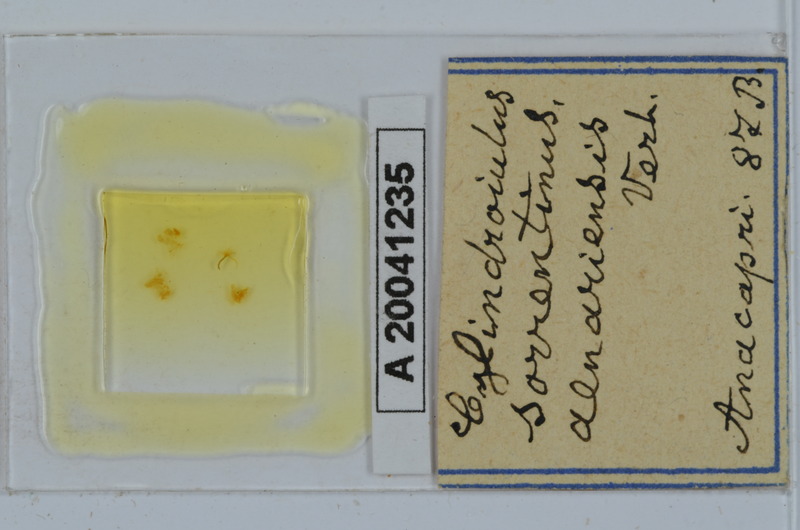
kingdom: Animalia
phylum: Arthropoda
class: Diplopoda
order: Julida
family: Julidae
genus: Cylindroiulus
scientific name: Cylindroiulus sorrentinus
